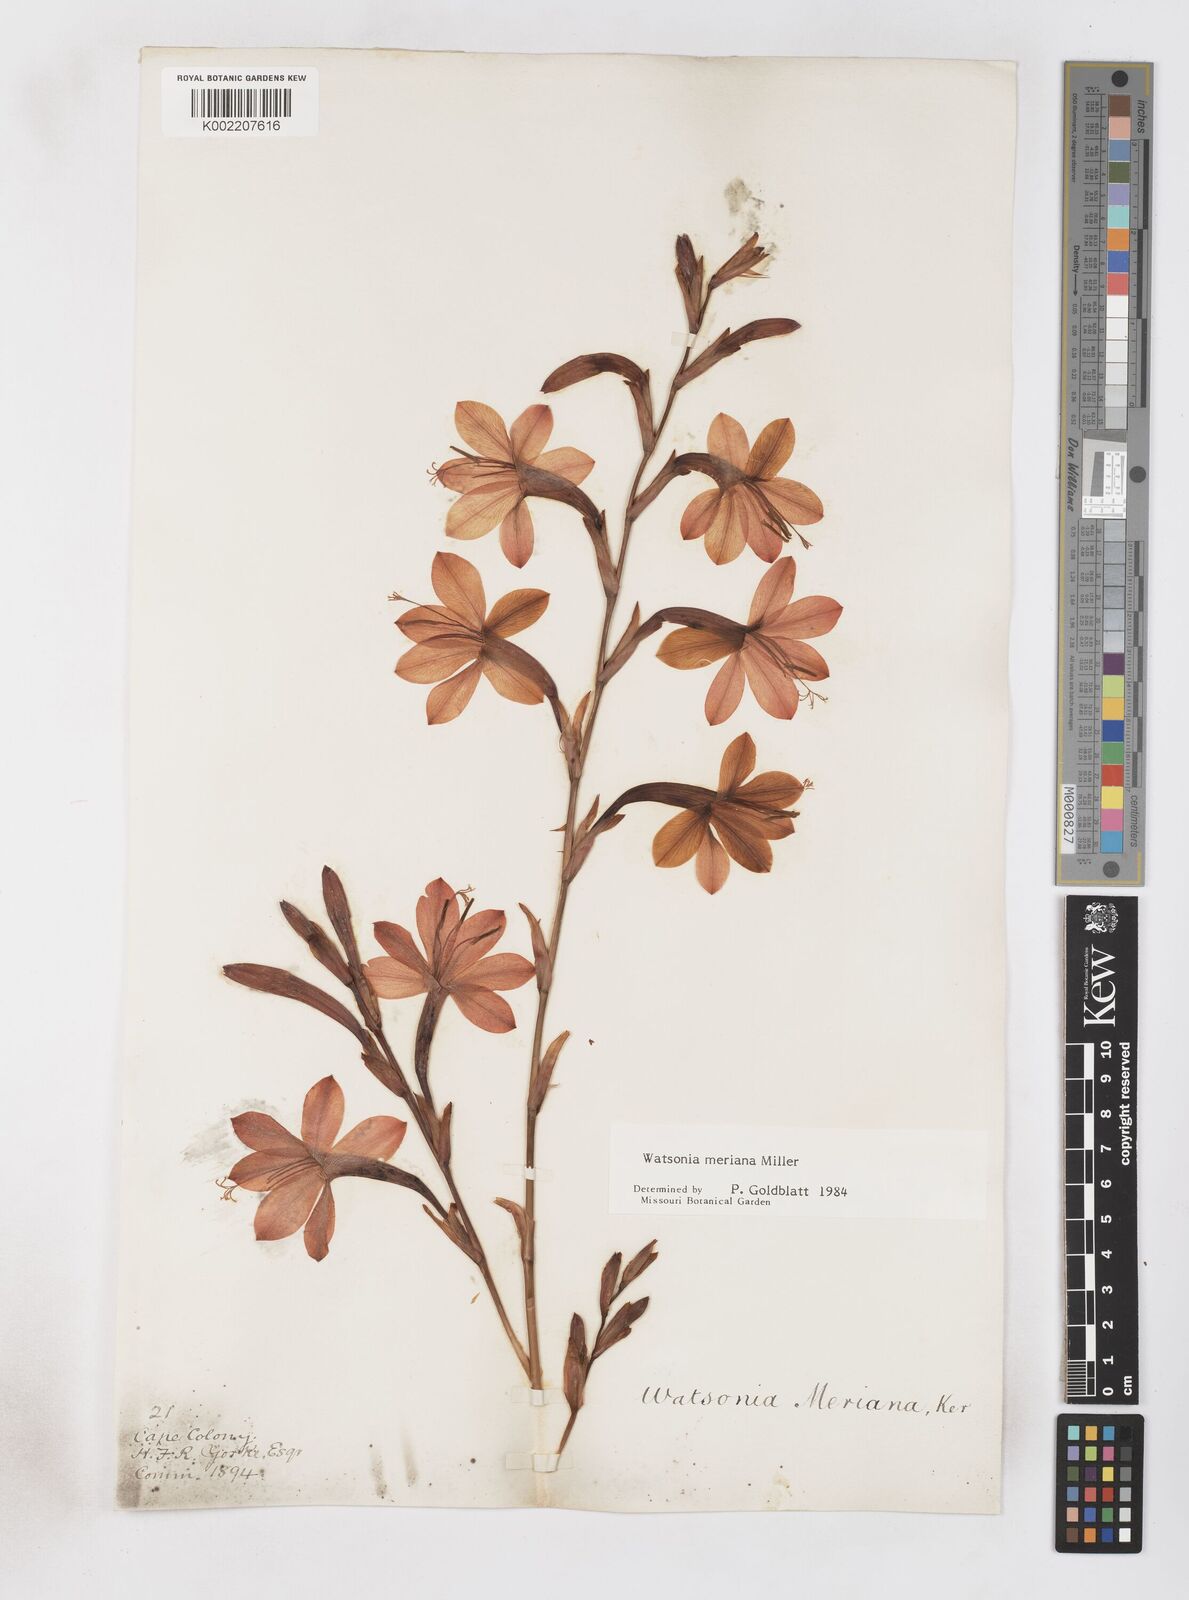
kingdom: Plantae
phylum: Tracheophyta
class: Liliopsida
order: Asparagales
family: Iridaceae
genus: Watsonia
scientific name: Watsonia meriana
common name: Bulbil bugle-lily
